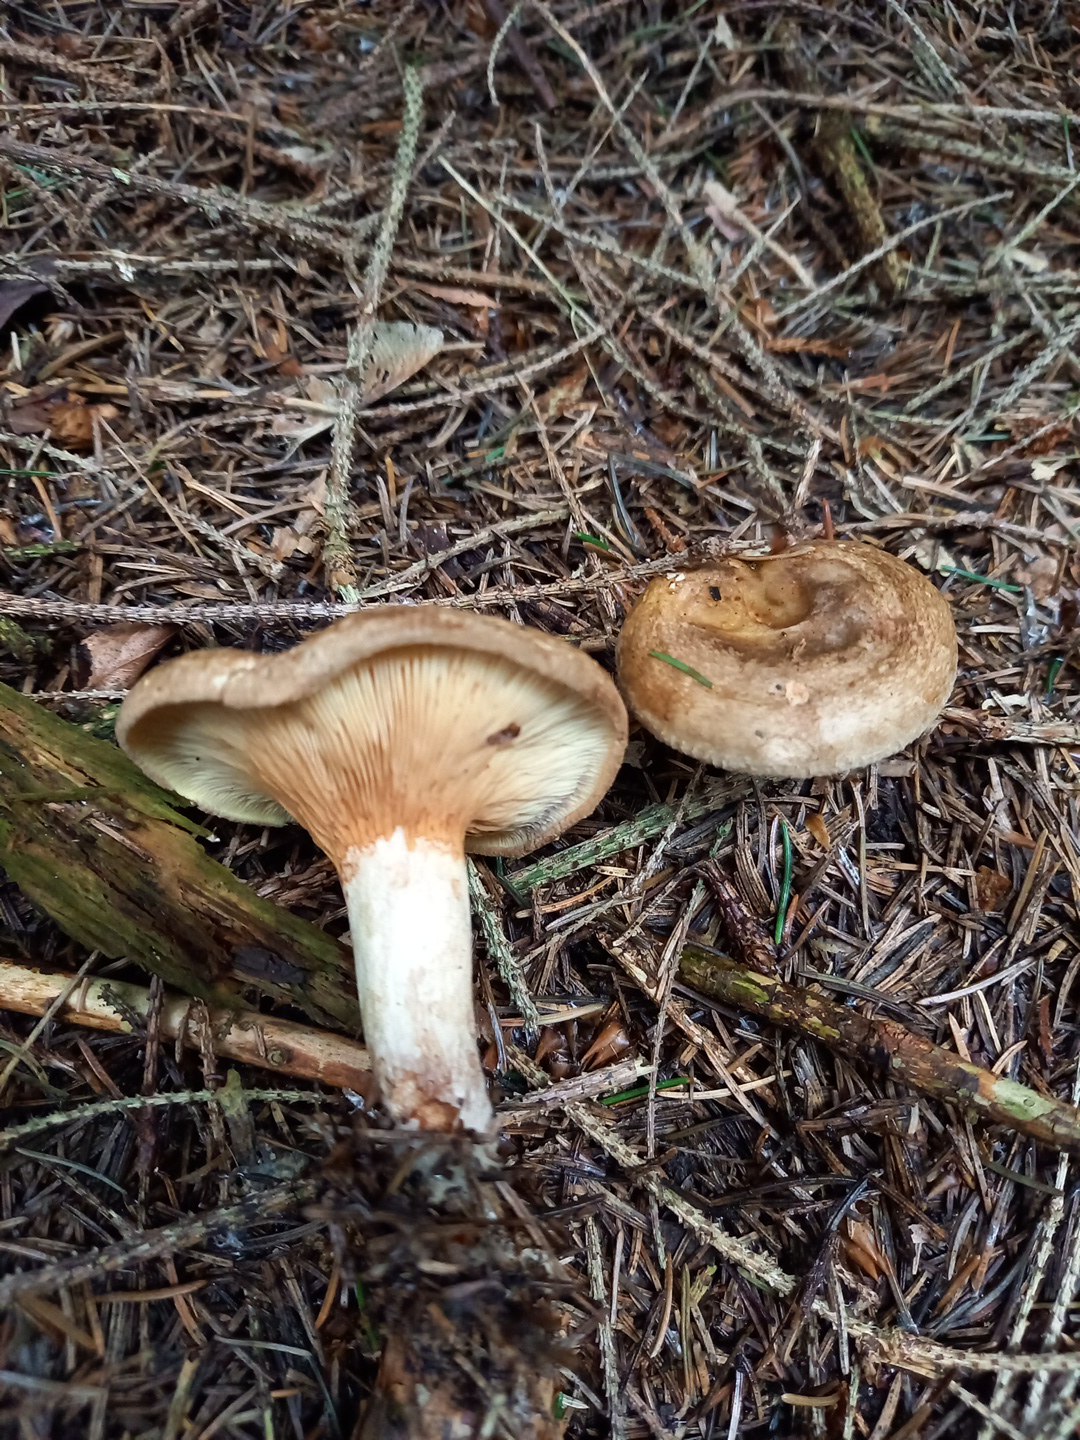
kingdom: Fungi
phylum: Basidiomycota
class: Agaricomycetes
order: Boletales
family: Paxillaceae
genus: Paxillus
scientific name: Paxillus involutus
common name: almindelig netbladhat
